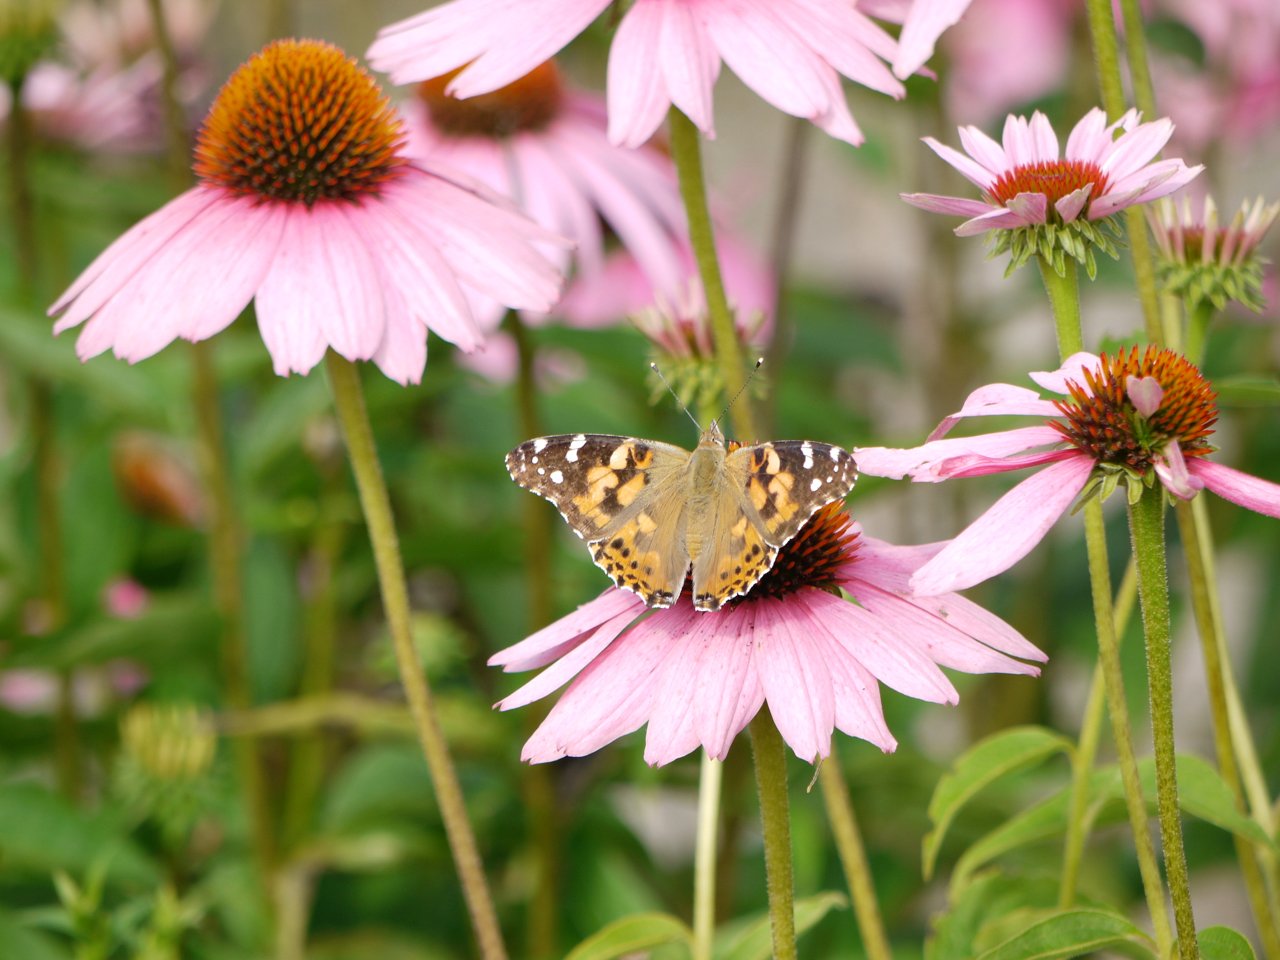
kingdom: Animalia
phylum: Arthropoda
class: Insecta
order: Lepidoptera
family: Nymphalidae
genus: Vanessa
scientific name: Vanessa cardui
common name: Painted Lady
